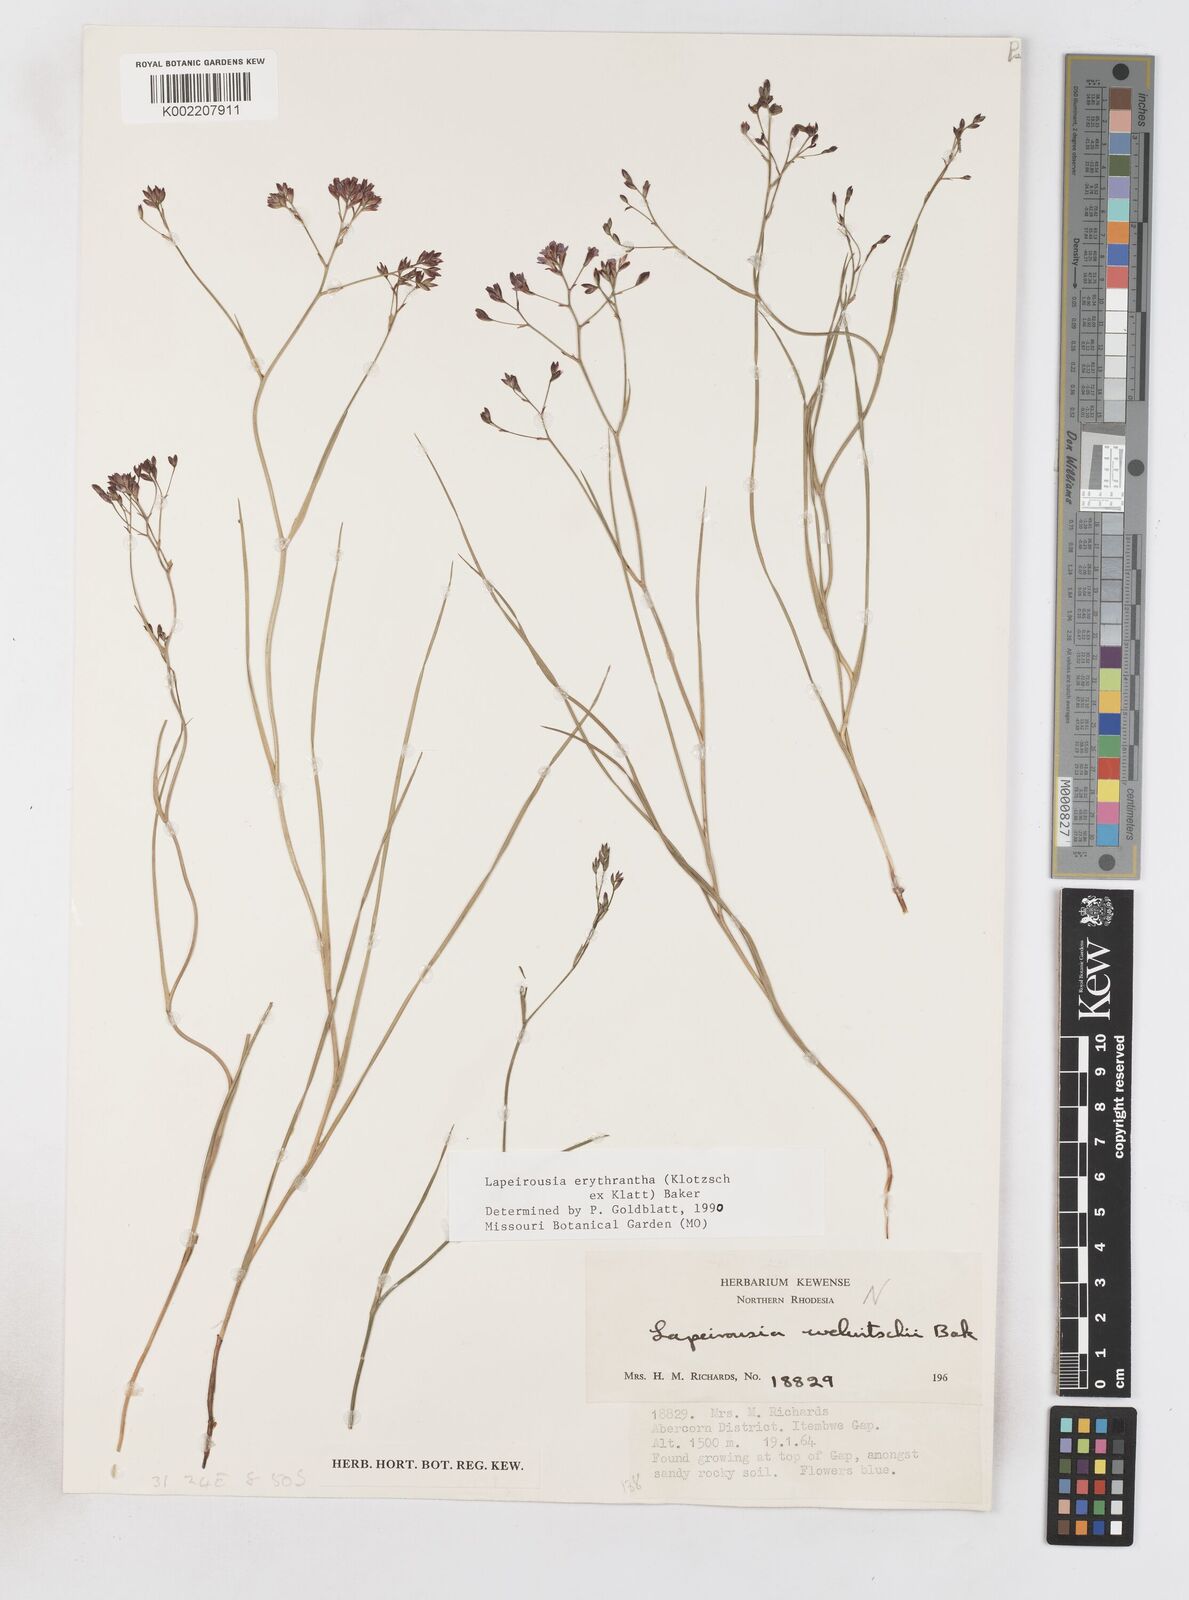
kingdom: Plantae
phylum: Tracheophyta
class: Liliopsida
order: Asparagales
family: Iridaceae
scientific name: Iridaceae
